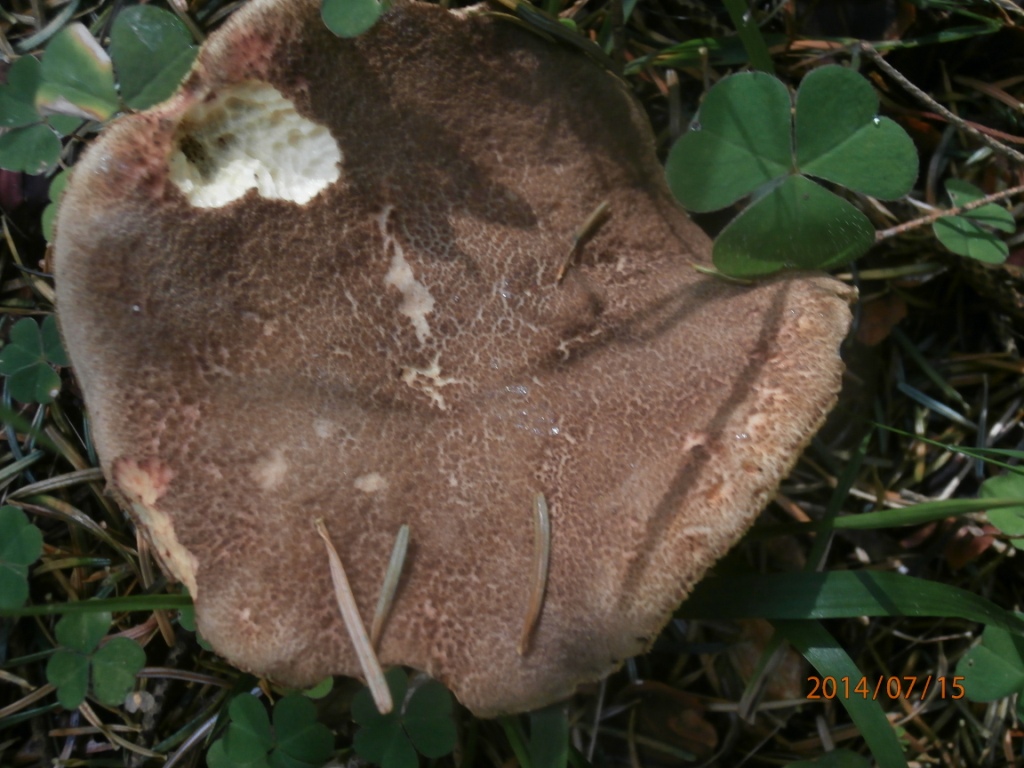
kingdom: Fungi
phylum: Basidiomycota
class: Agaricomycetes
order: Boletales
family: Boletaceae
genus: Xerocomellus
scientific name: Xerocomellus chrysenteron
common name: rødsprukken rørhat
